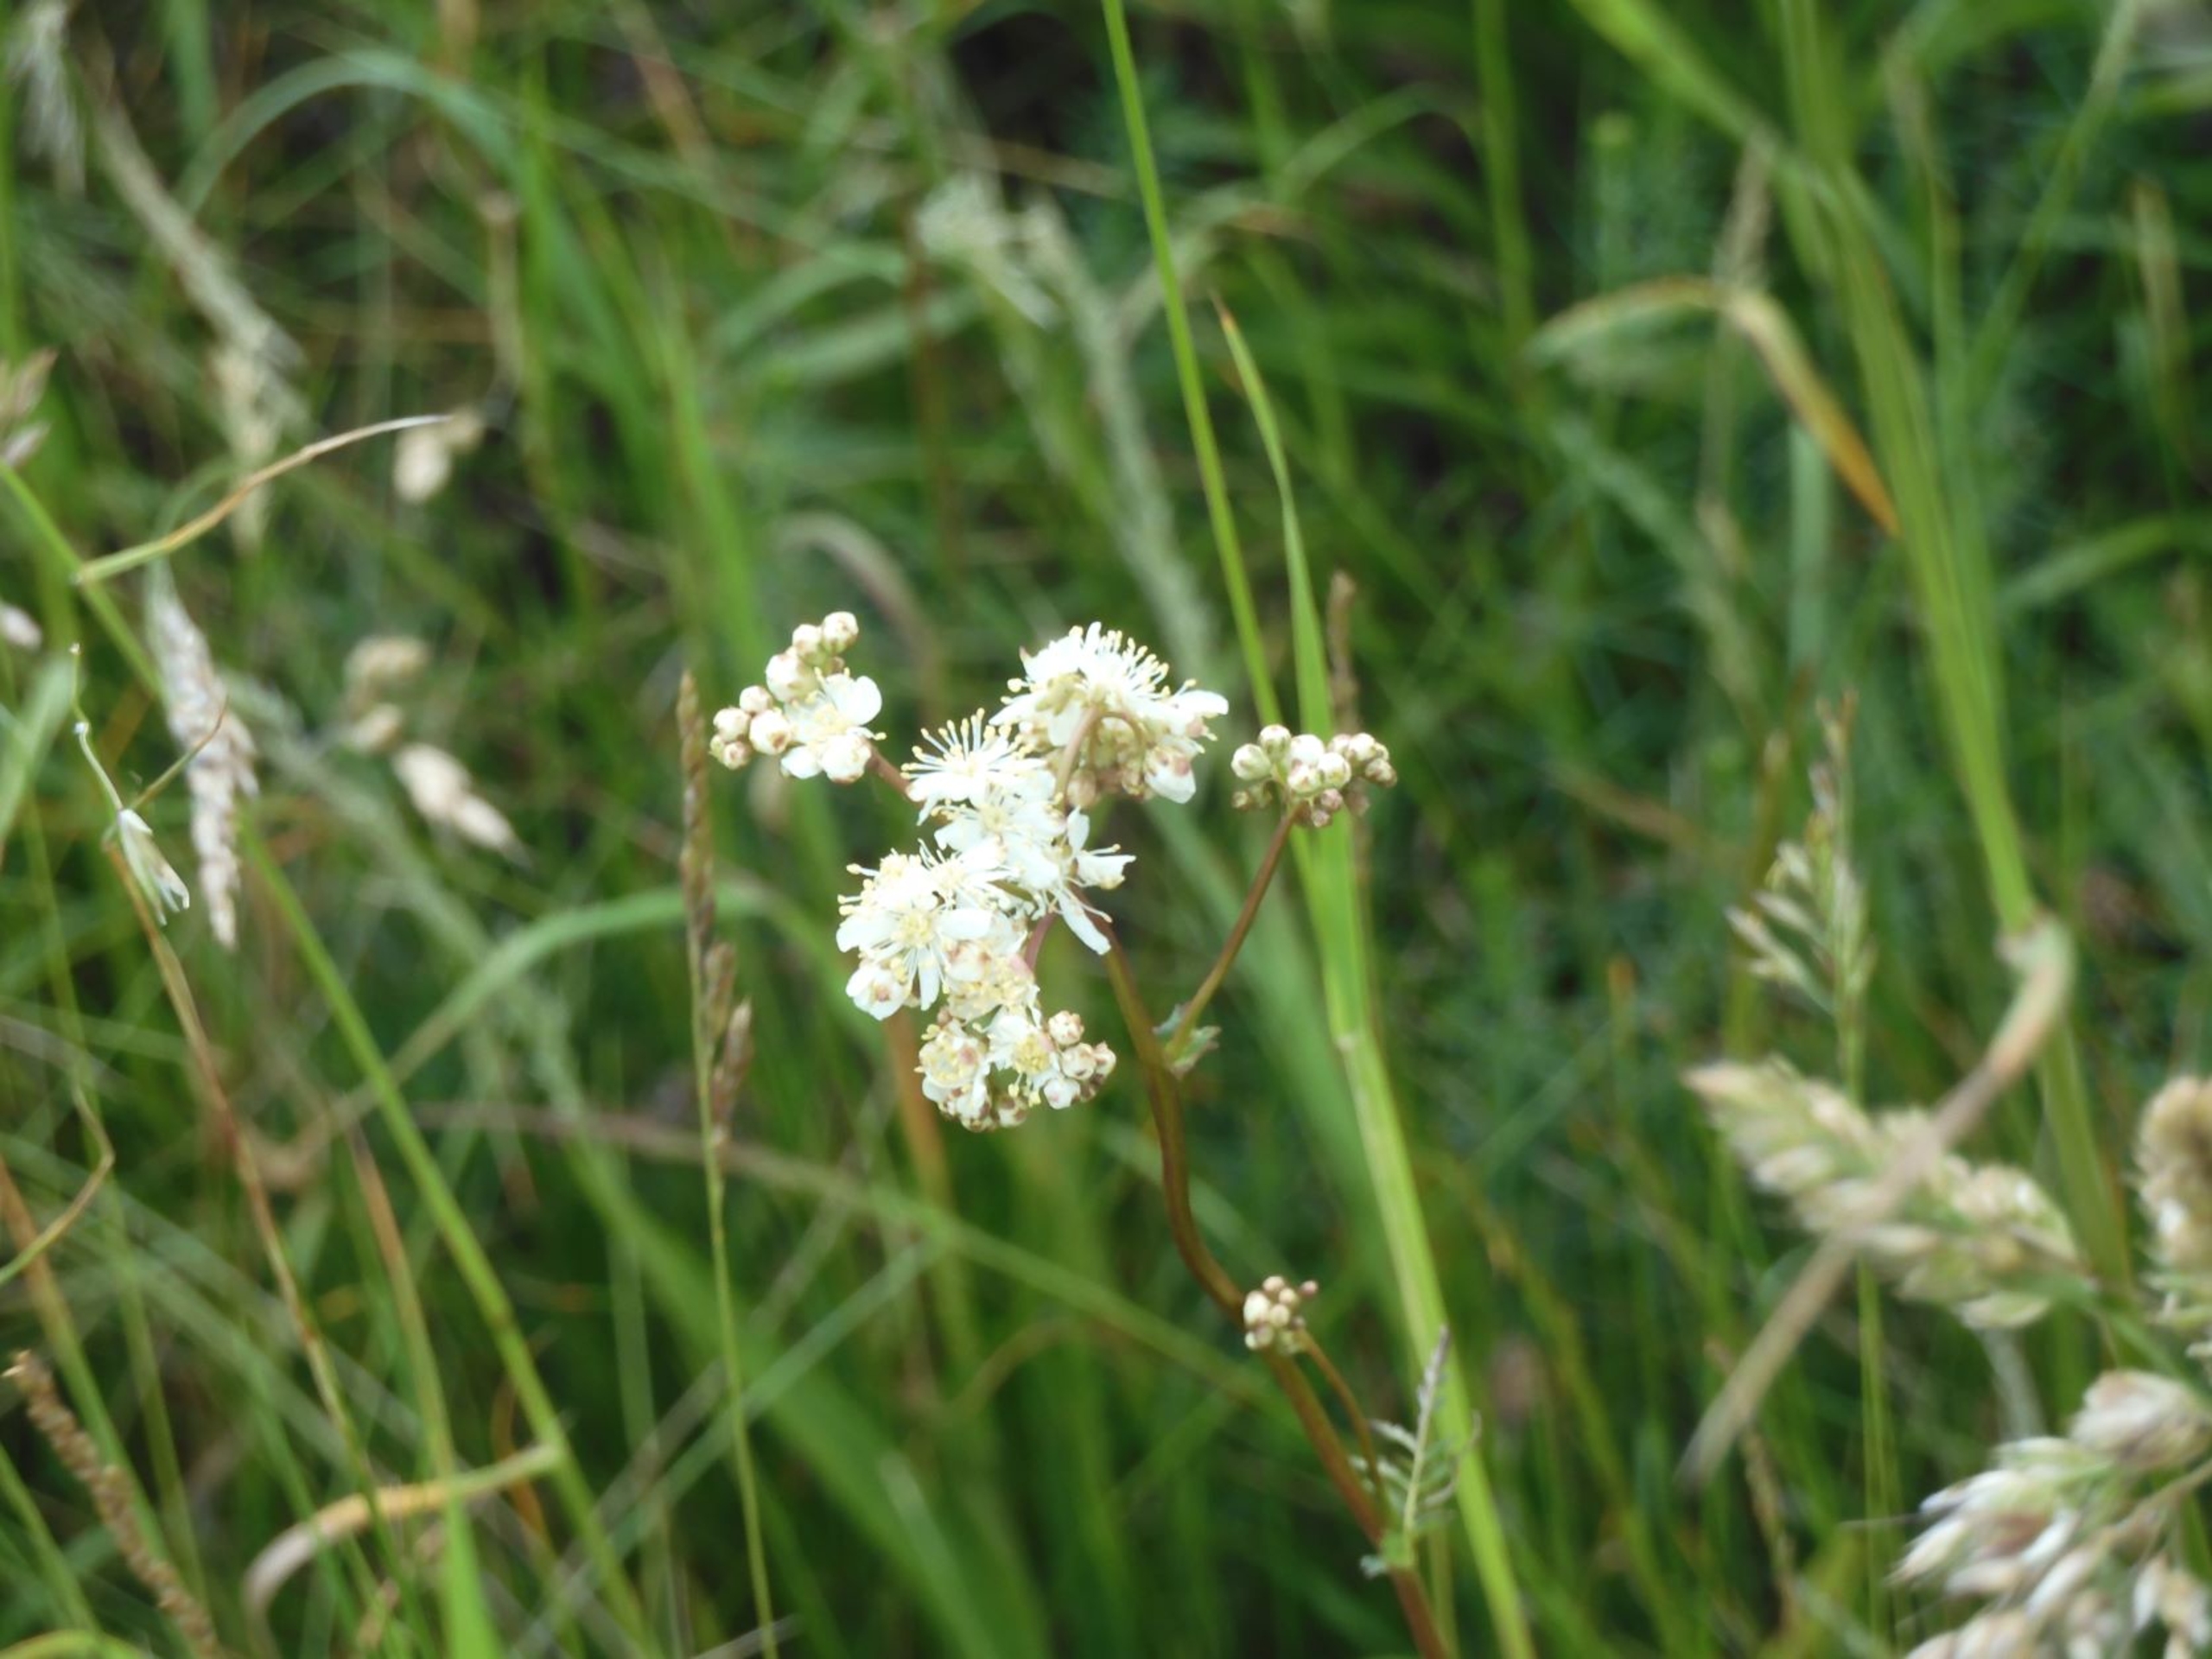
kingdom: Plantae
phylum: Tracheophyta
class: Magnoliopsida
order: Rosales
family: Rosaceae
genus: Filipendula
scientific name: Filipendula vulgaris
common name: Knoldet mjødurt
